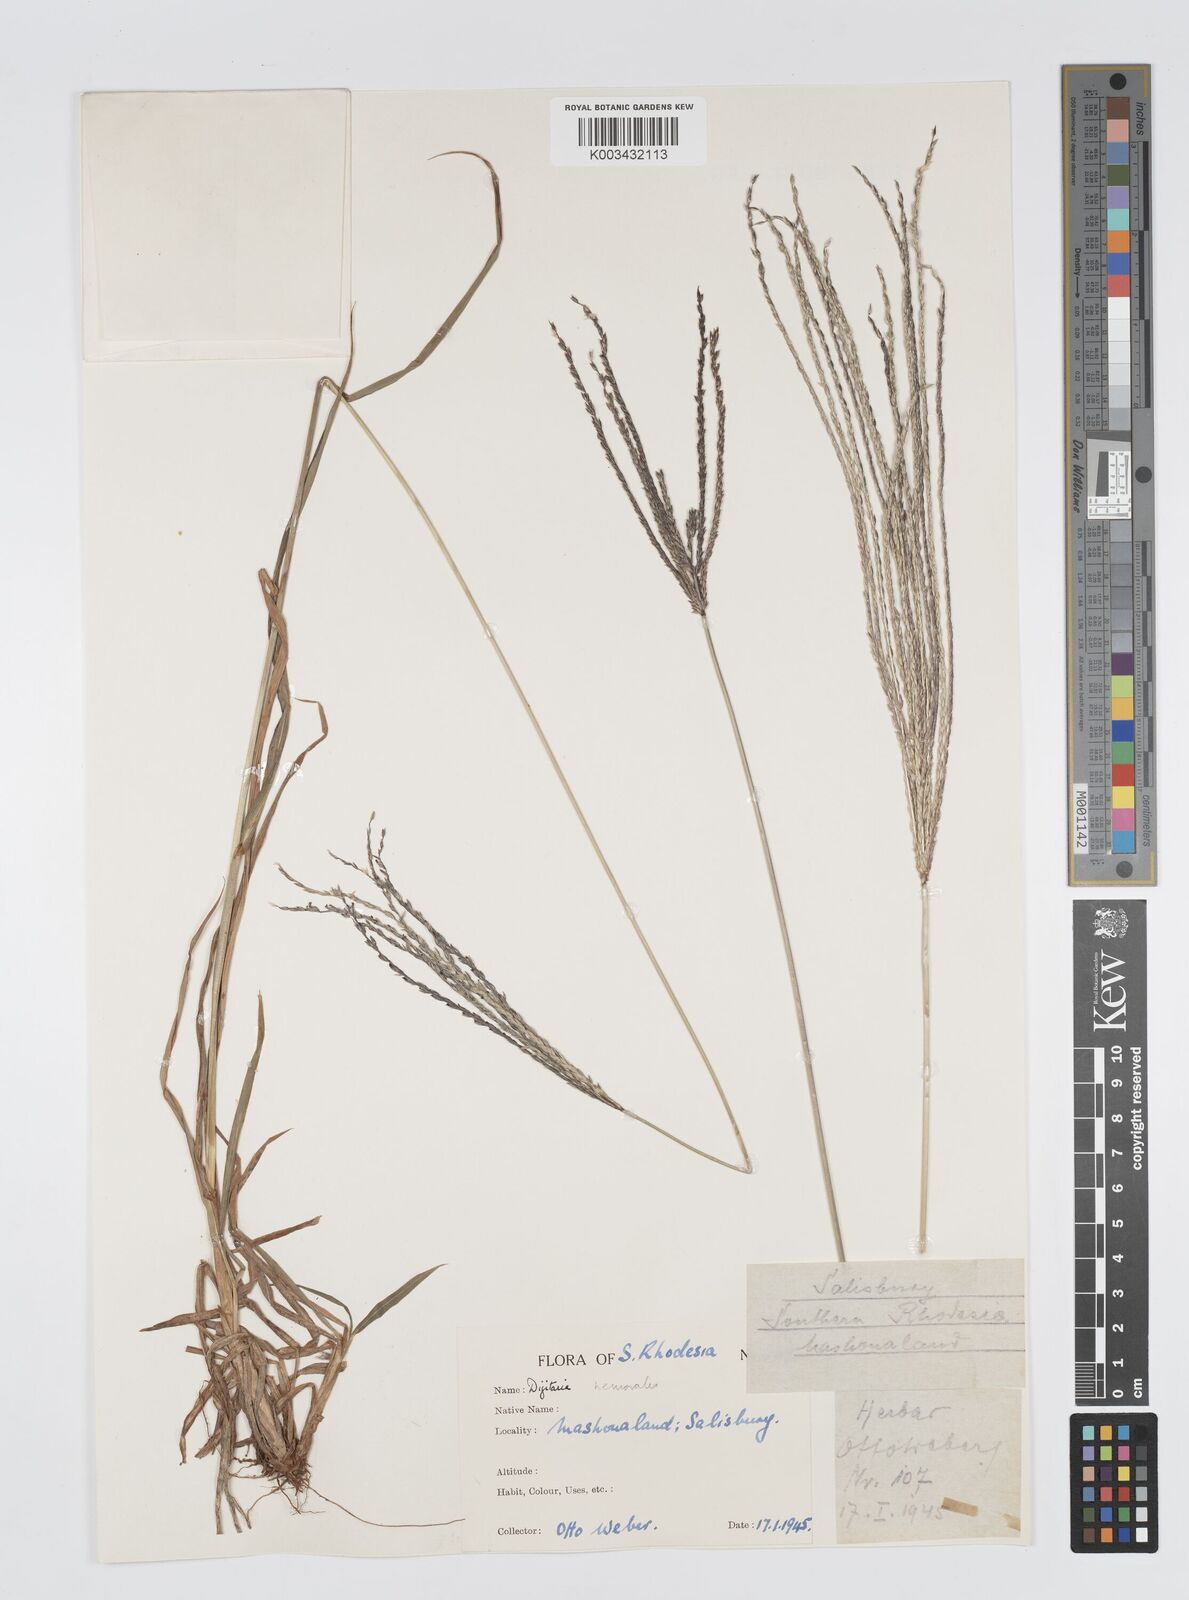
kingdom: Plantae
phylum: Tracheophyta
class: Liliopsida
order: Poales
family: Poaceae
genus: Digitaria
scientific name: Digitaria milanjiana
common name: Madagascar crabgrass
